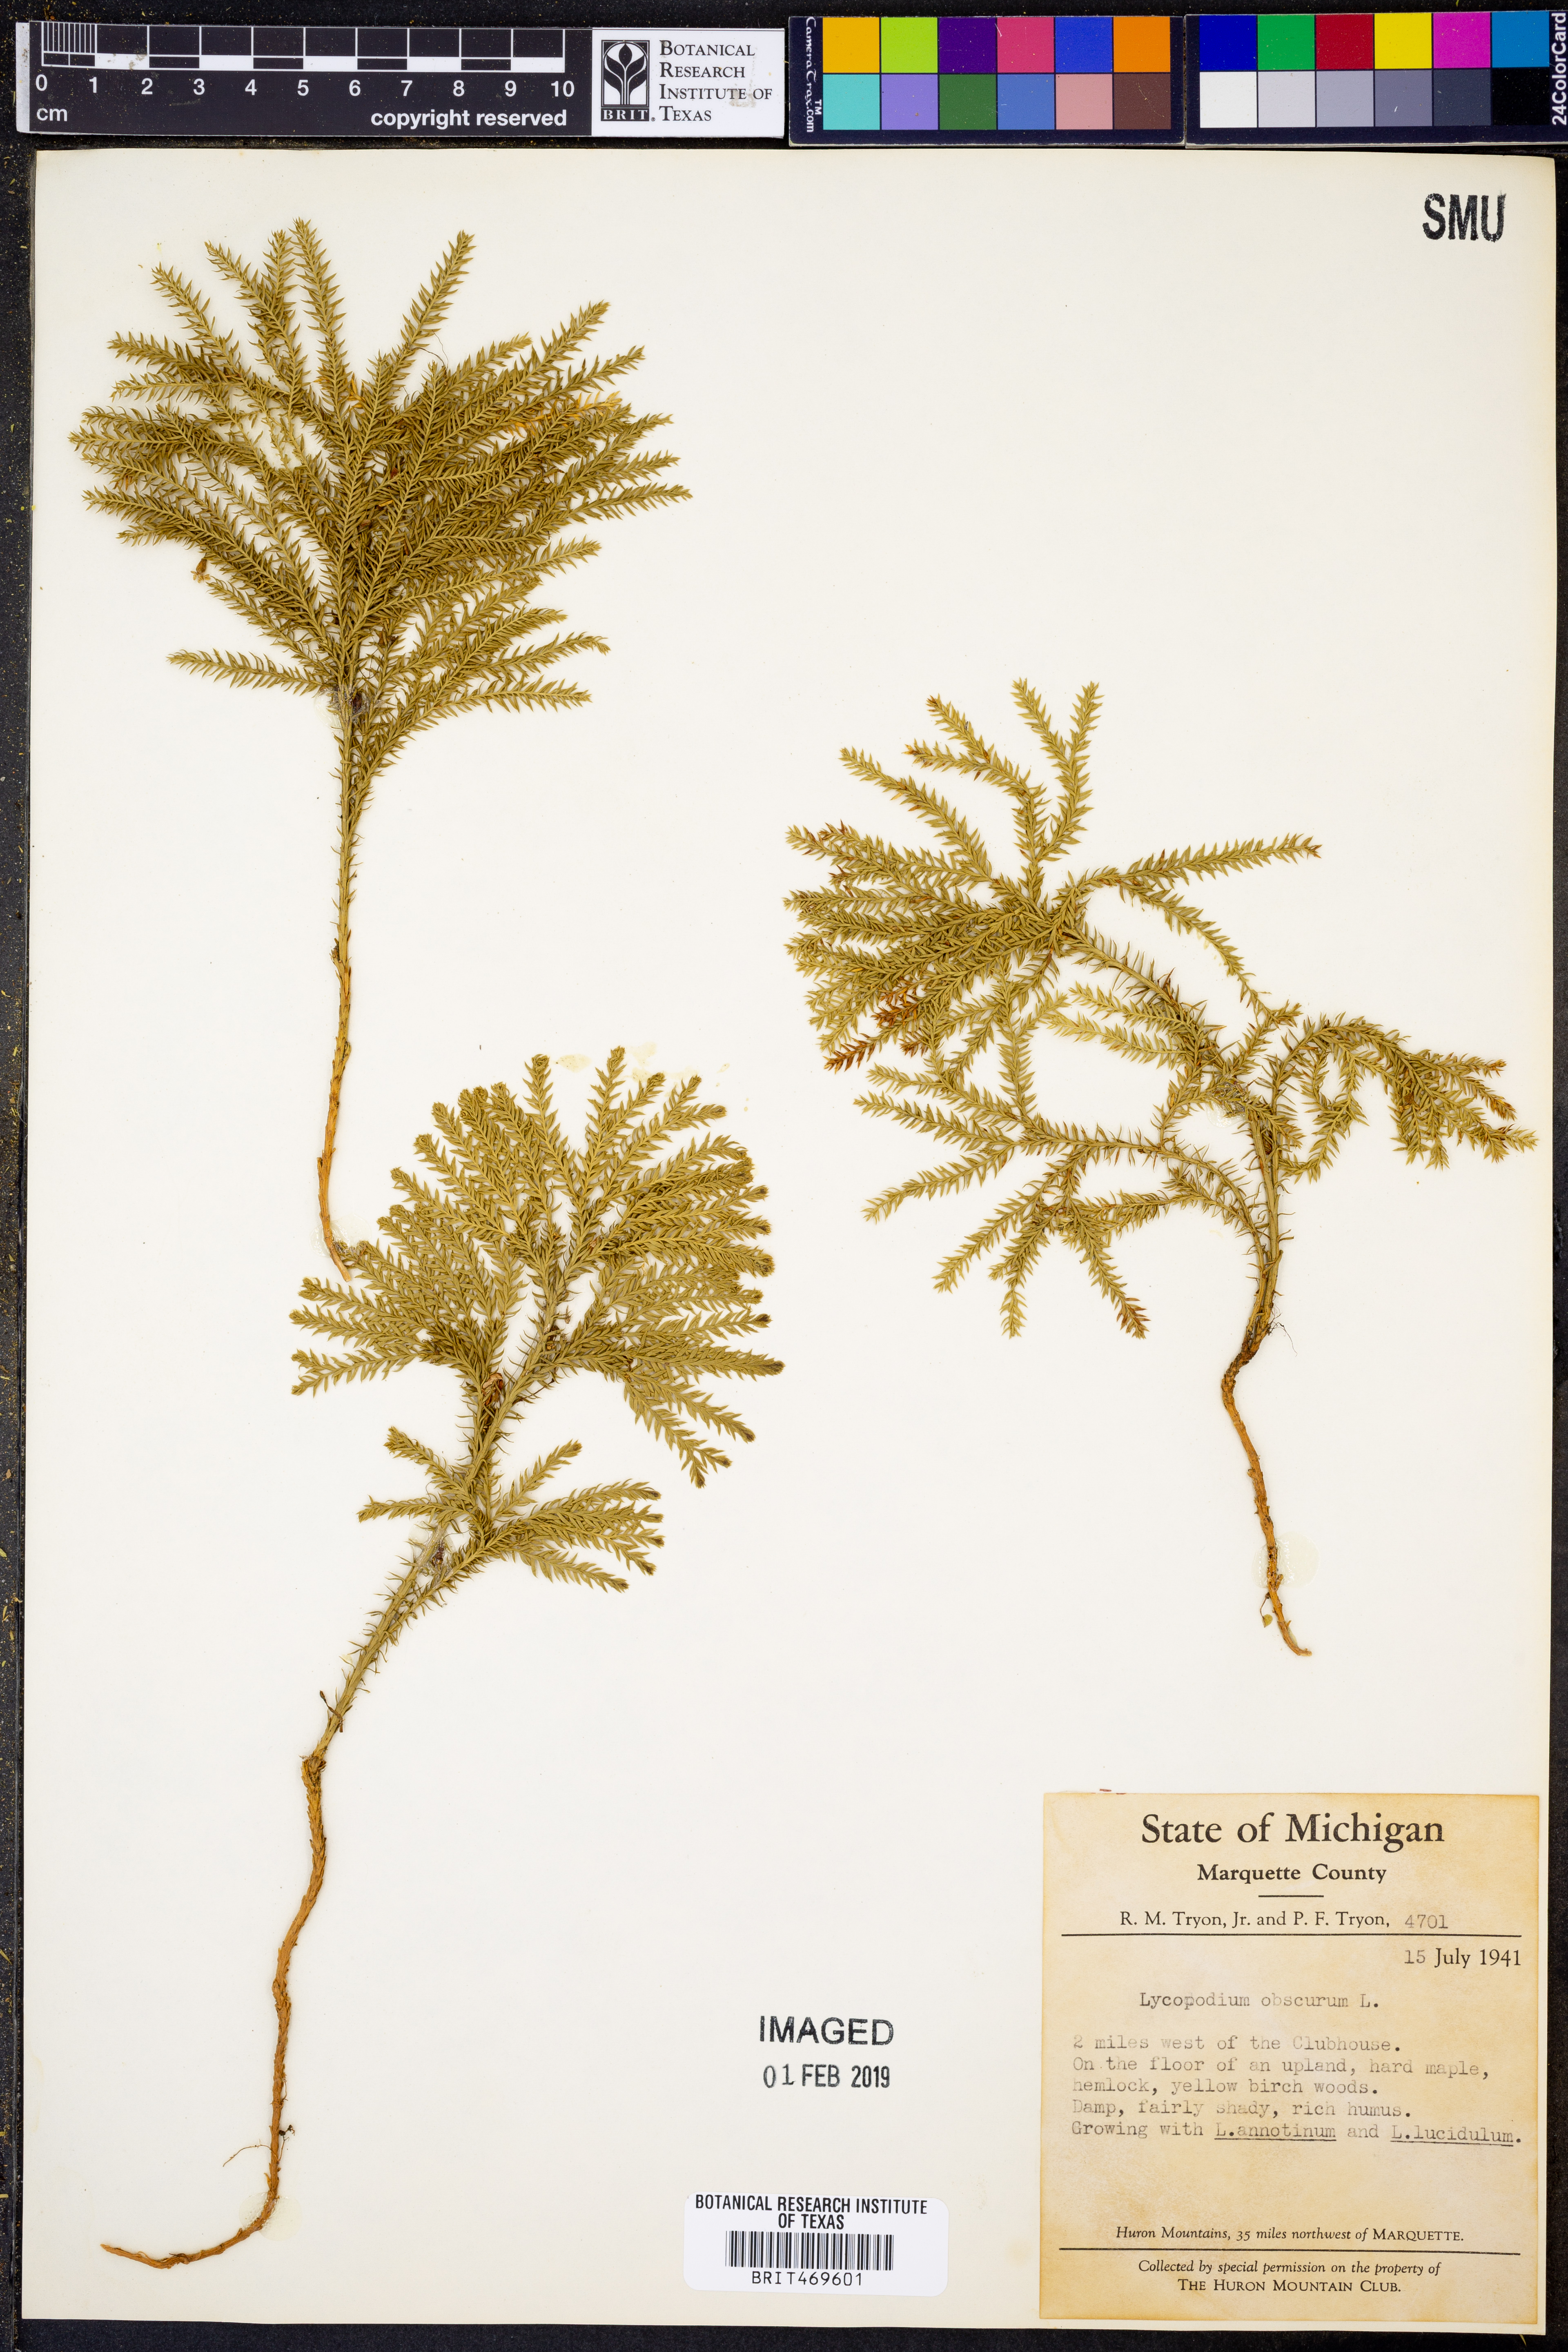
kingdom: Plantae
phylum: Tracheophyta
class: Lycopodiopsida
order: Lycopodiales
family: Lycopodiaceae
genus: Dendrolycopodium
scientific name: Dendrolycopodium obscurum
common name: Common ground-pine
